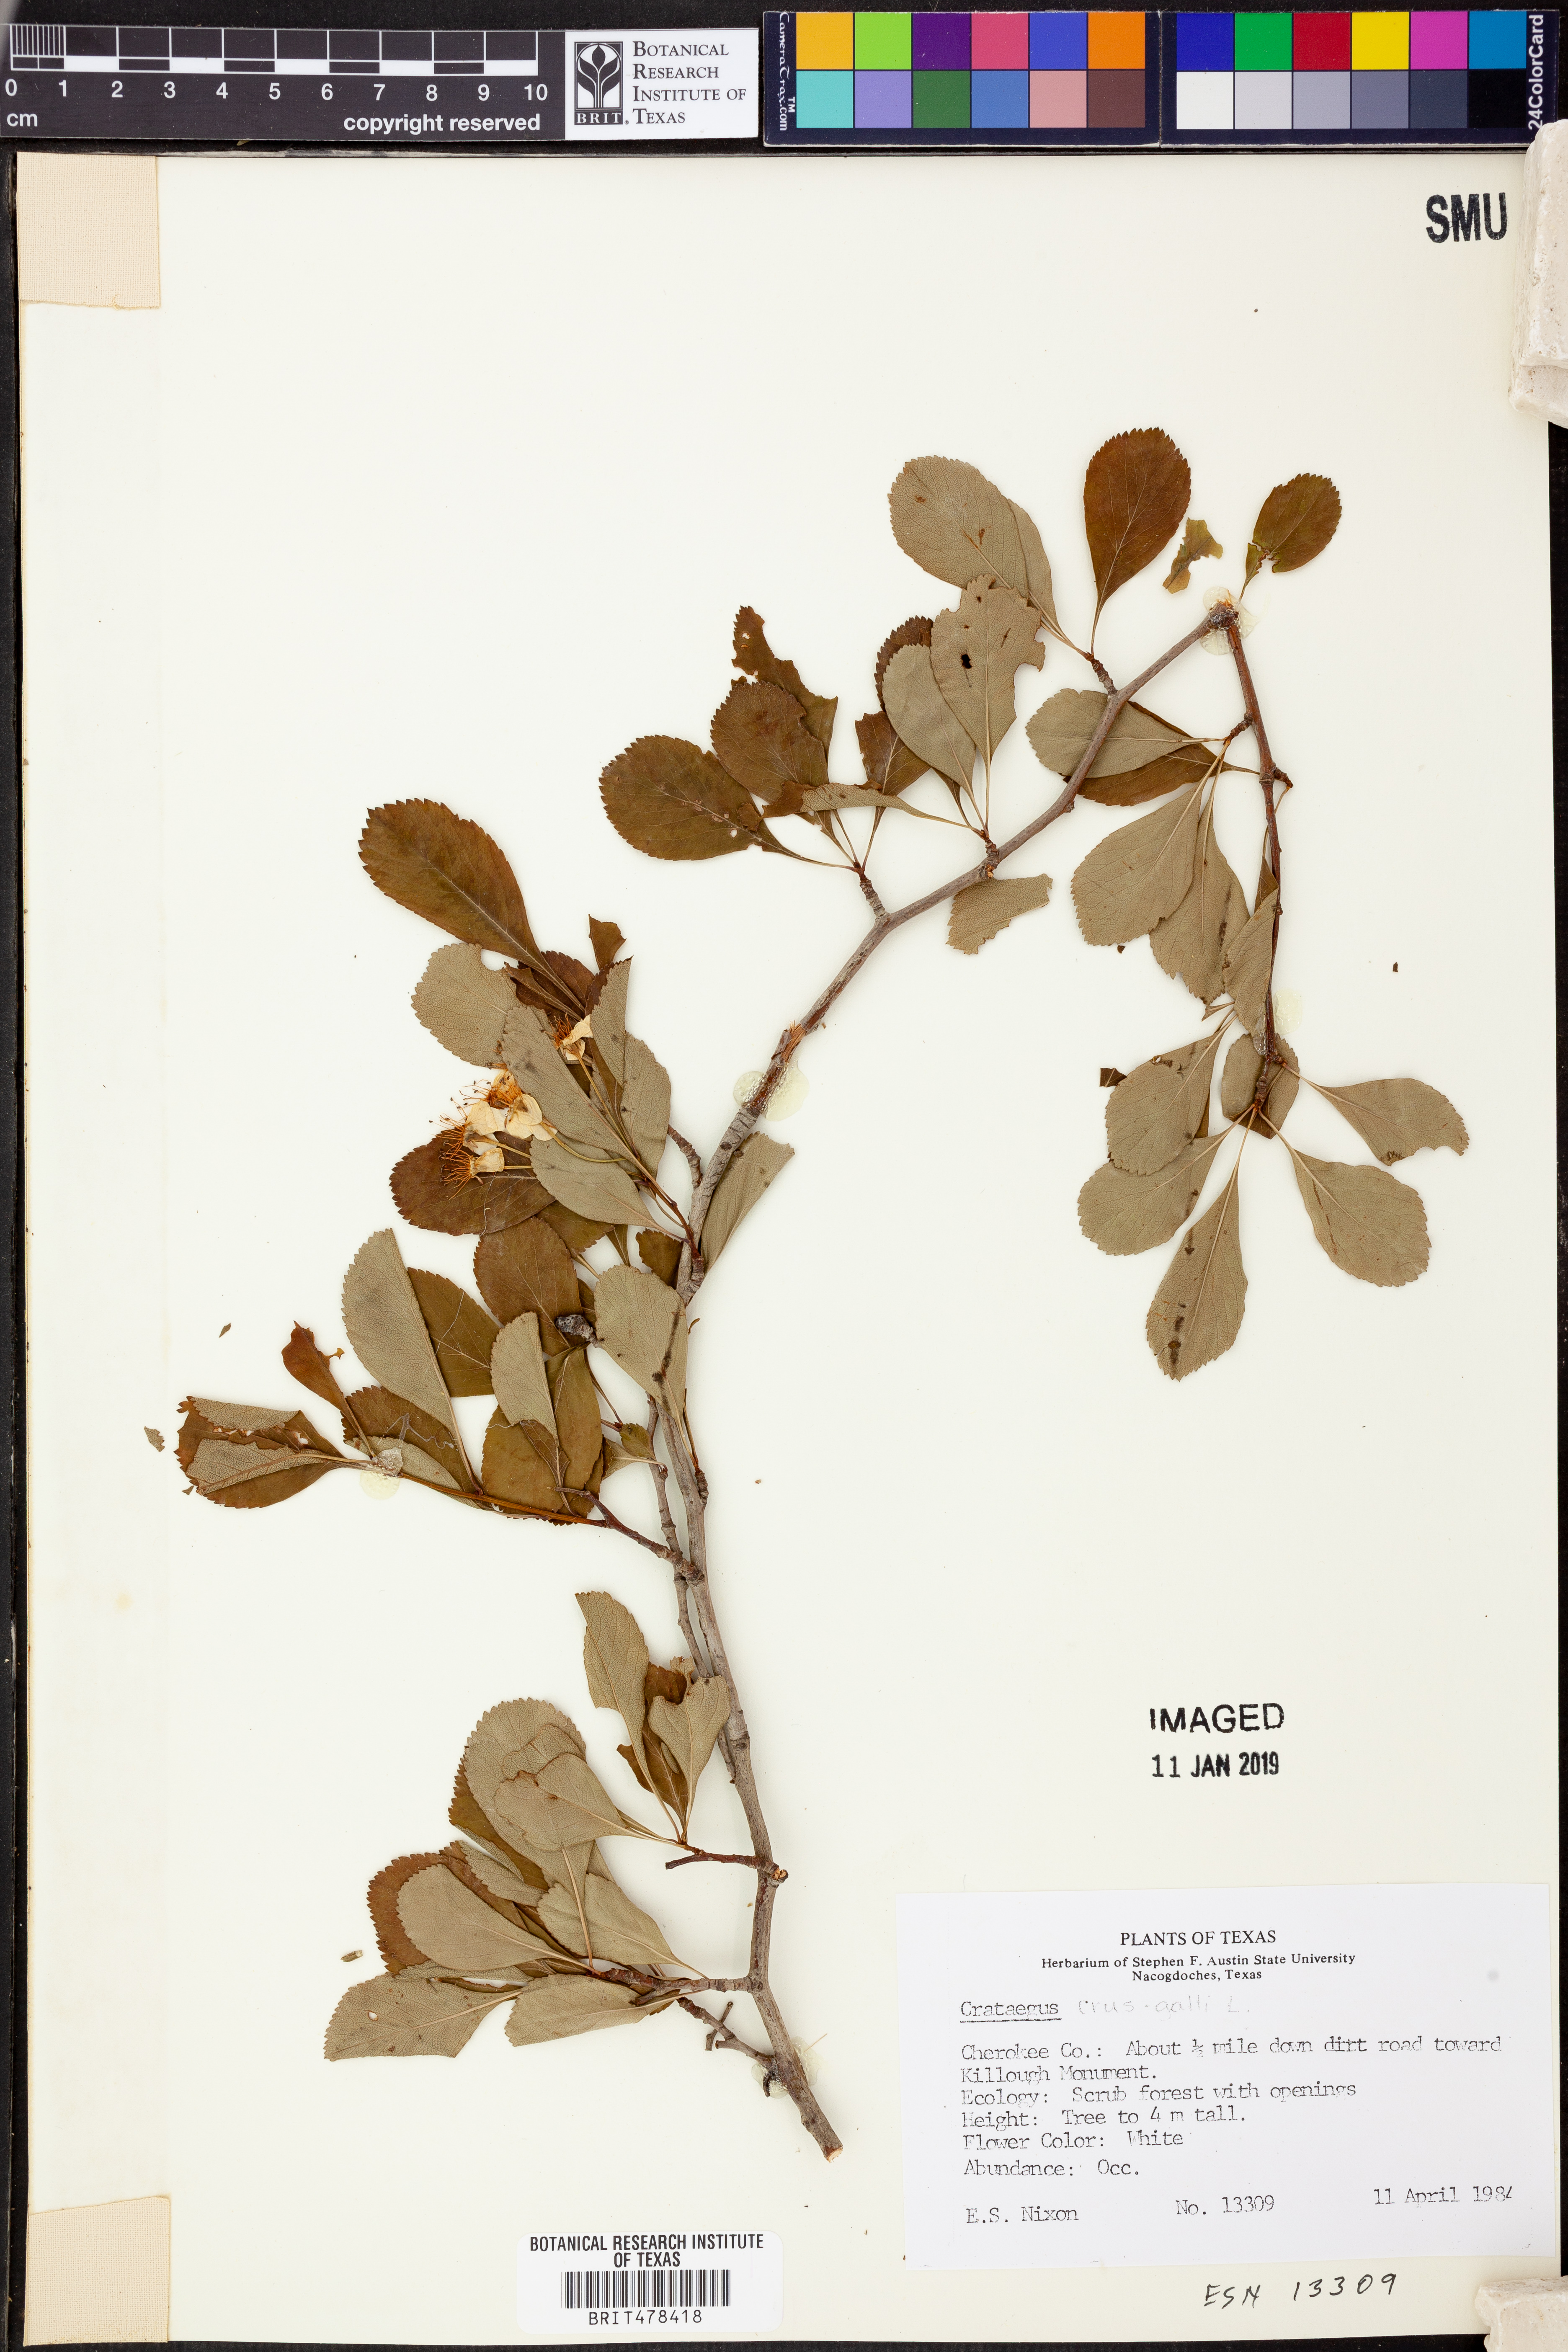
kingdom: Plantae
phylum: Tracheophyta
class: Magnoliopsida
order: Rosales
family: Rosaceae
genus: Crataegus
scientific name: Crataegus crus-galli
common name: Cockspurthorn
